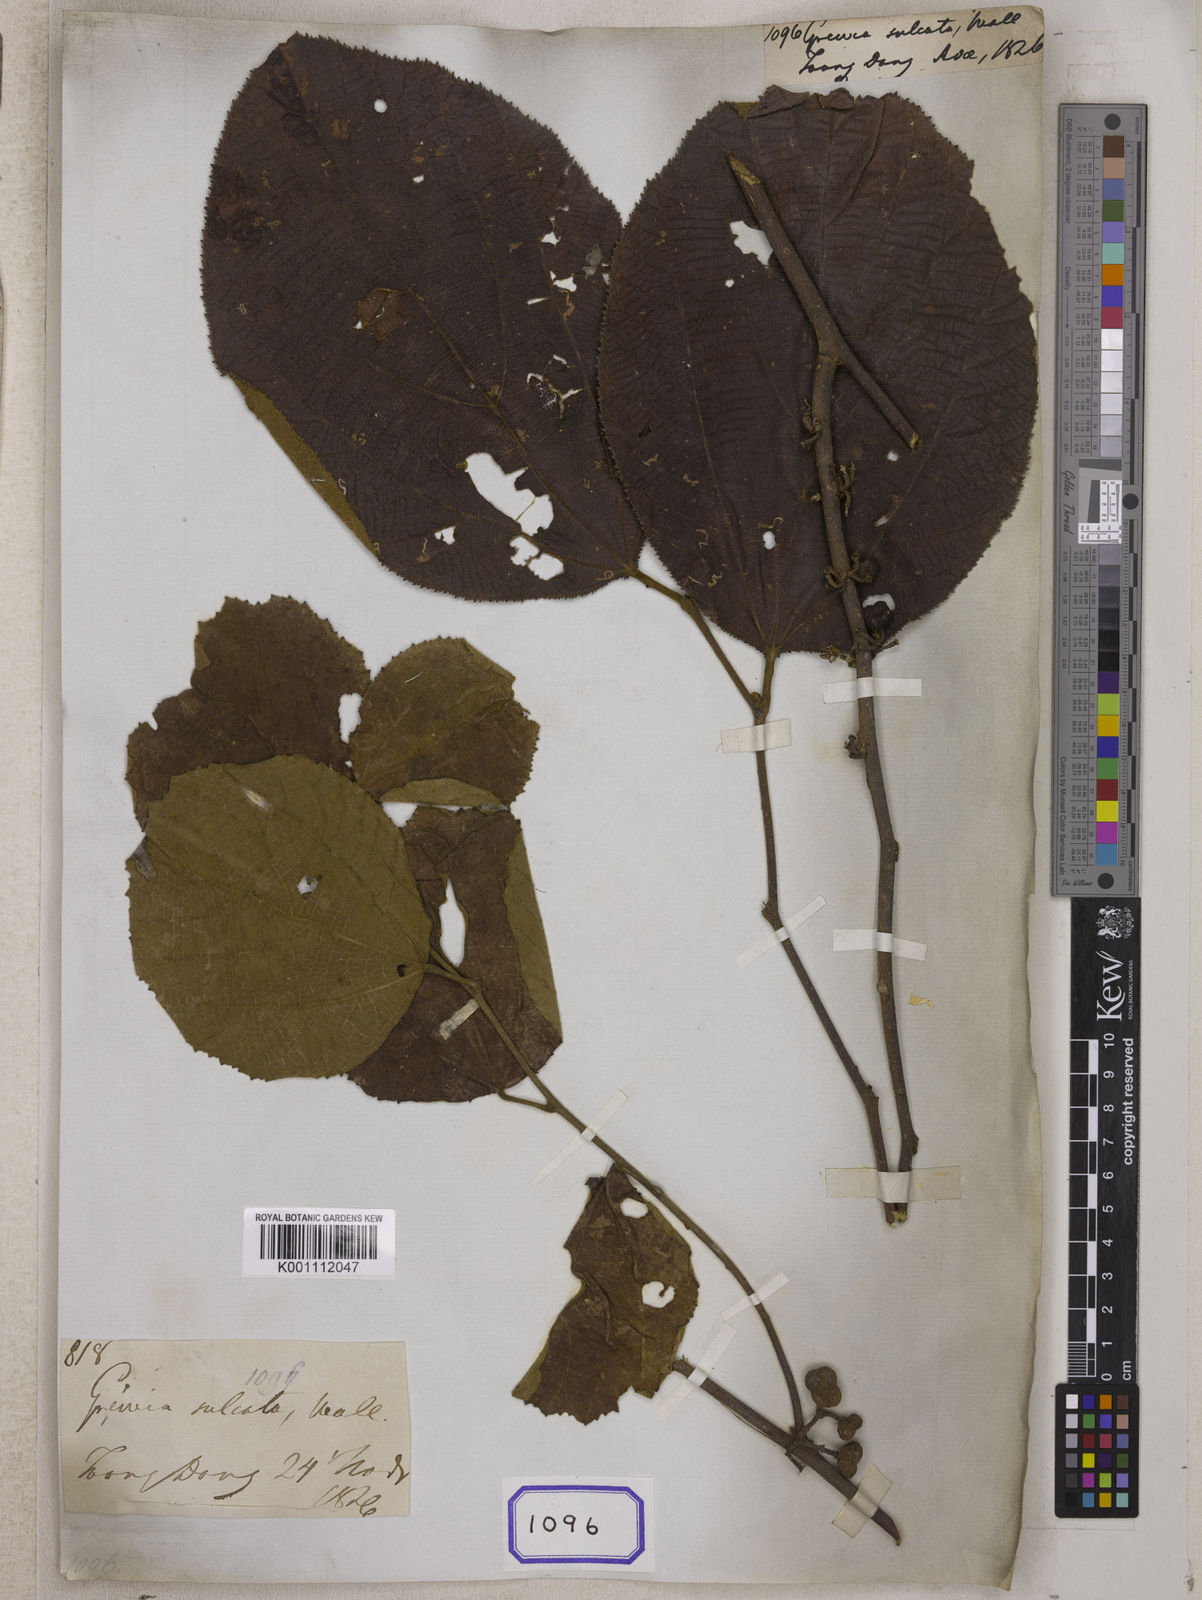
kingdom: Plantae
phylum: Tracheophyta
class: Magnoliopsida
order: Malvales
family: Malvaceae
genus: Grewia
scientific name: Grewia
